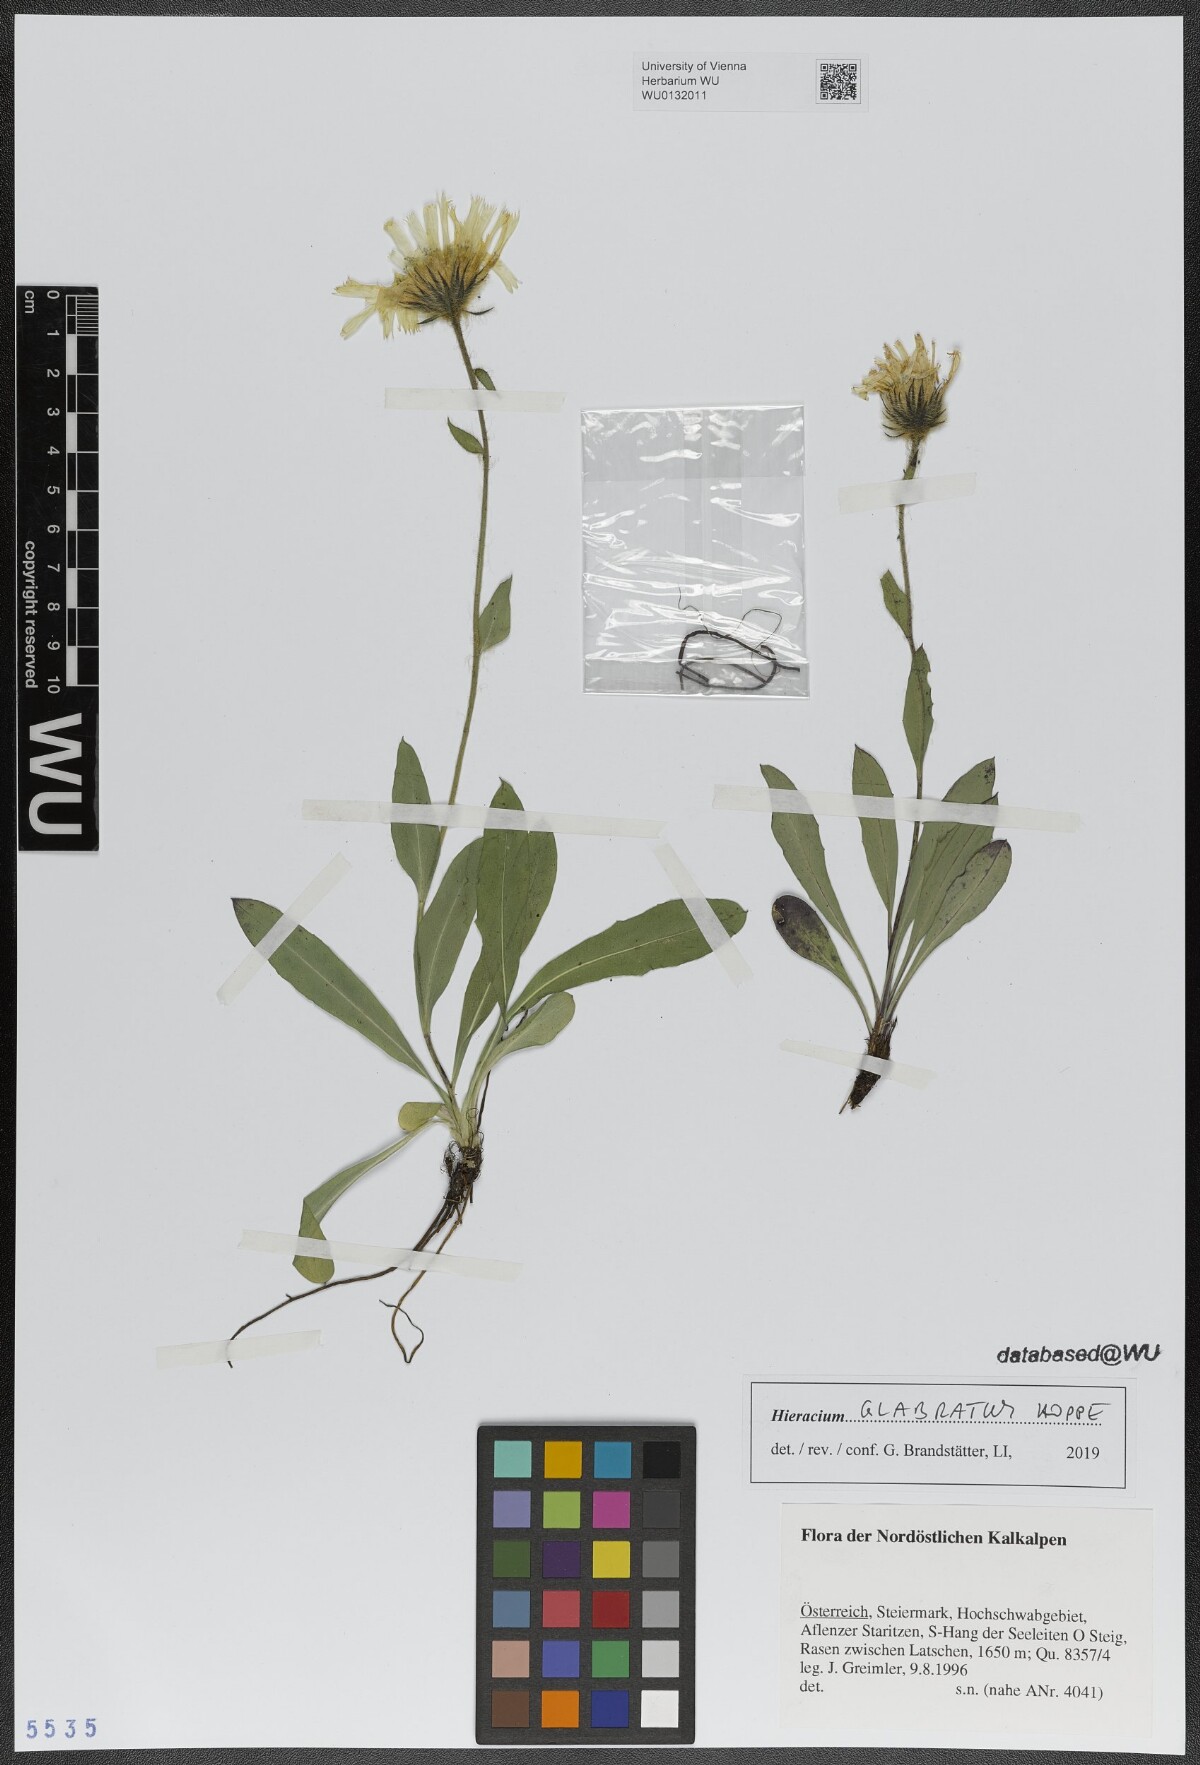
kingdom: Plantae
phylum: Tracheophyta
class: Magnoliopsida
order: Asterales
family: Asteraceae
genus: Hieracium
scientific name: Hieracium glabratum
